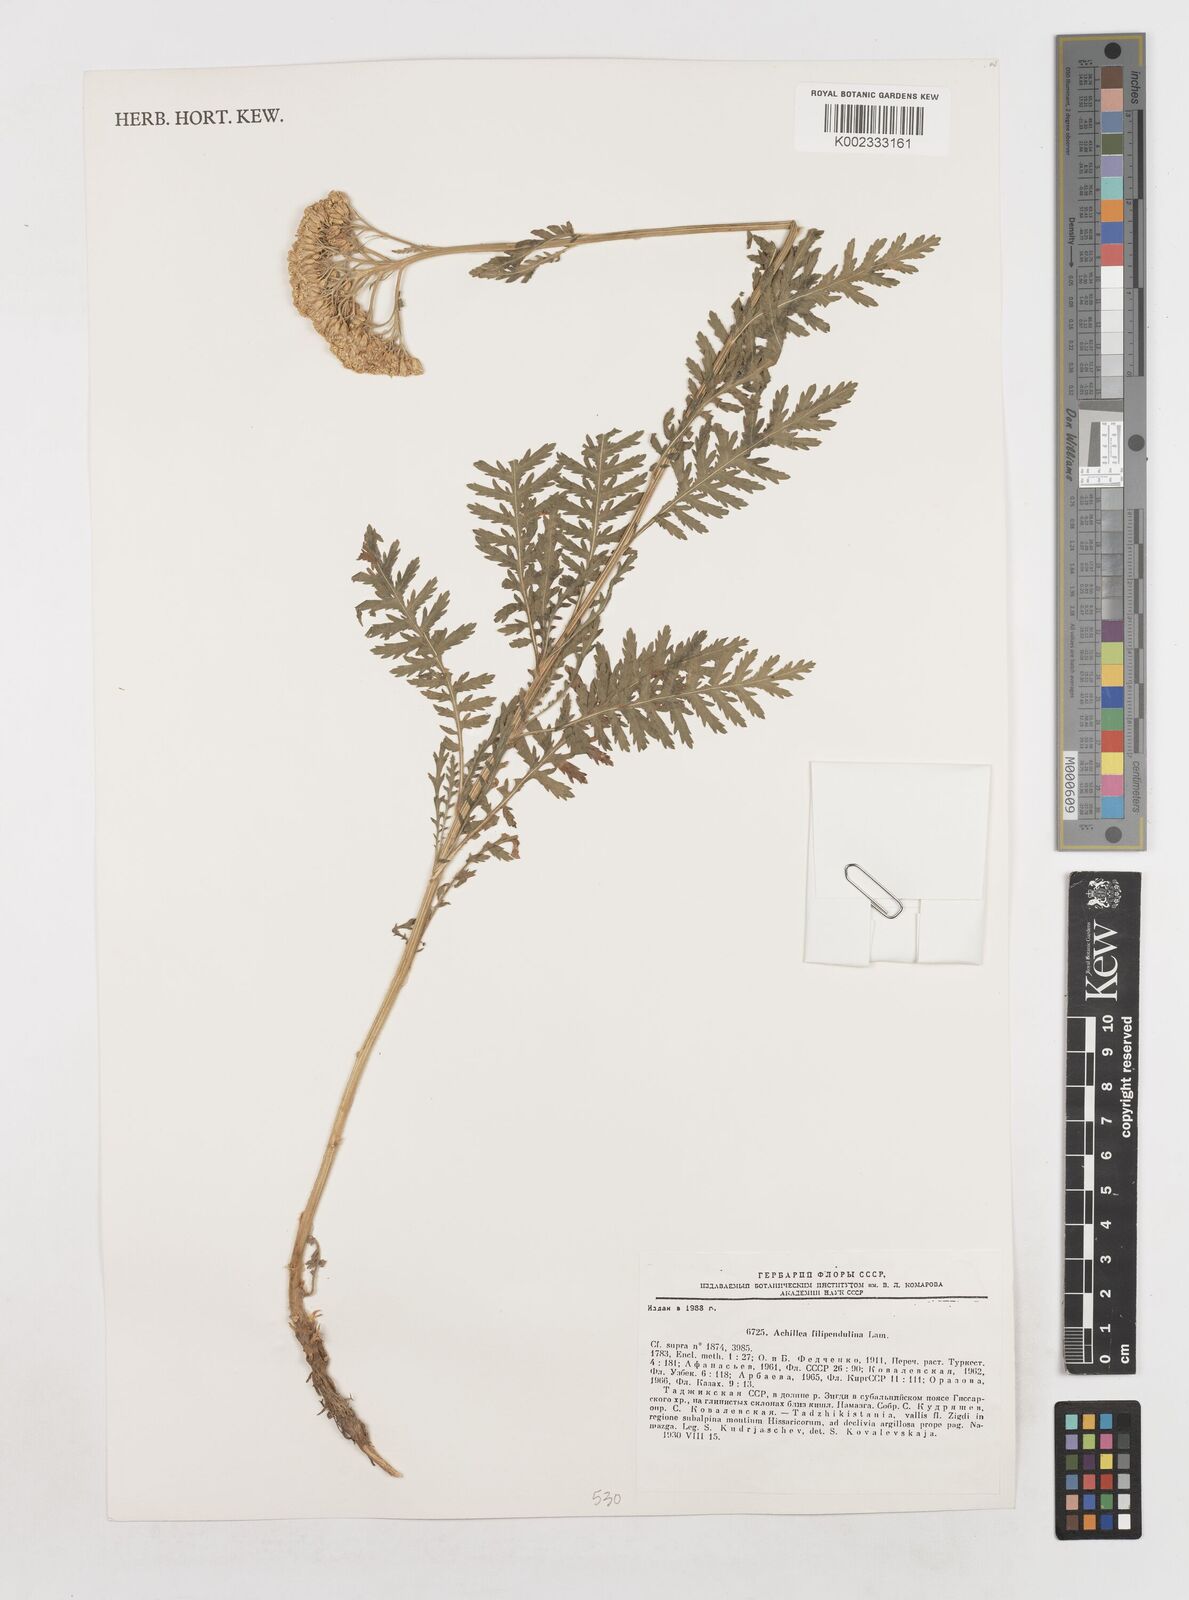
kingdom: Plantae
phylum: Tracheophyta
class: Magnoliopsida
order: Asterales
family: Asteraceae
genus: Achillea
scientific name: Achillea filipendulina
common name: Fernleaf yarrow
